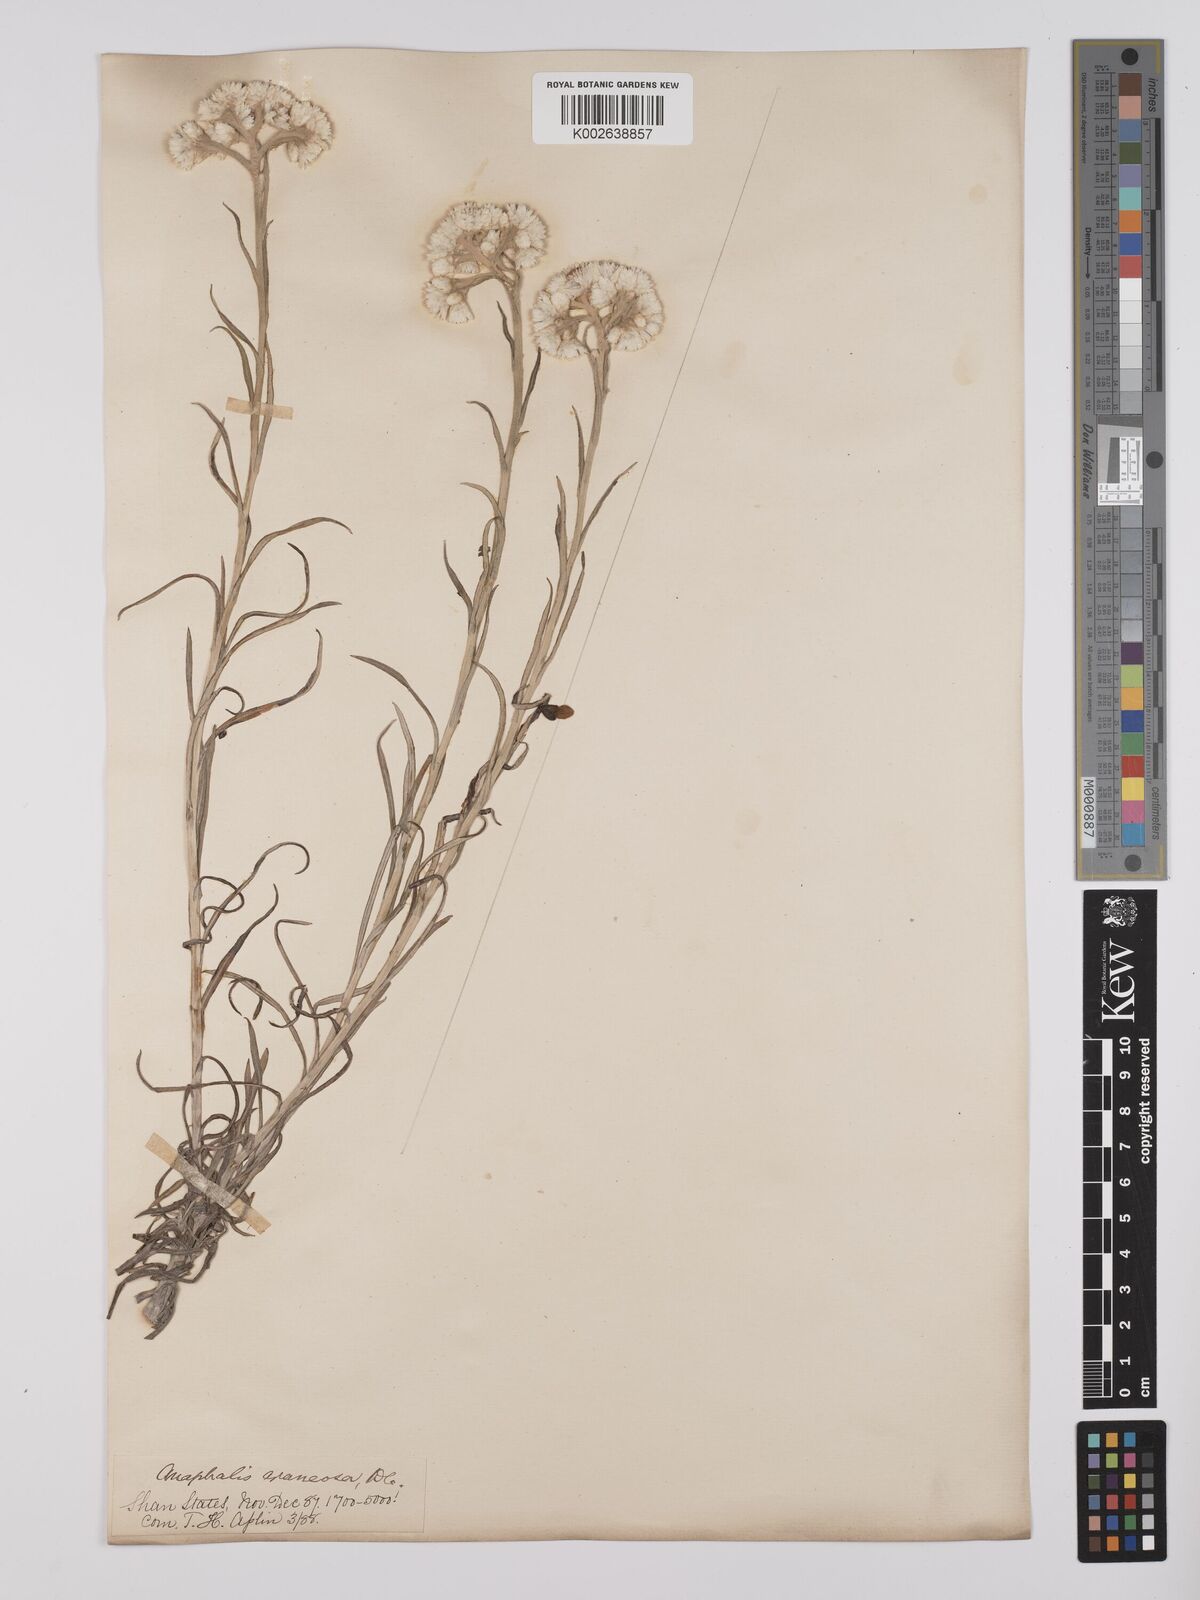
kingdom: Plantae
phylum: Tracheophyta
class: Magnoliopsida
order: Asterales
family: Asteraceae
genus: Anaphalis
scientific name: Anaphalis busua
